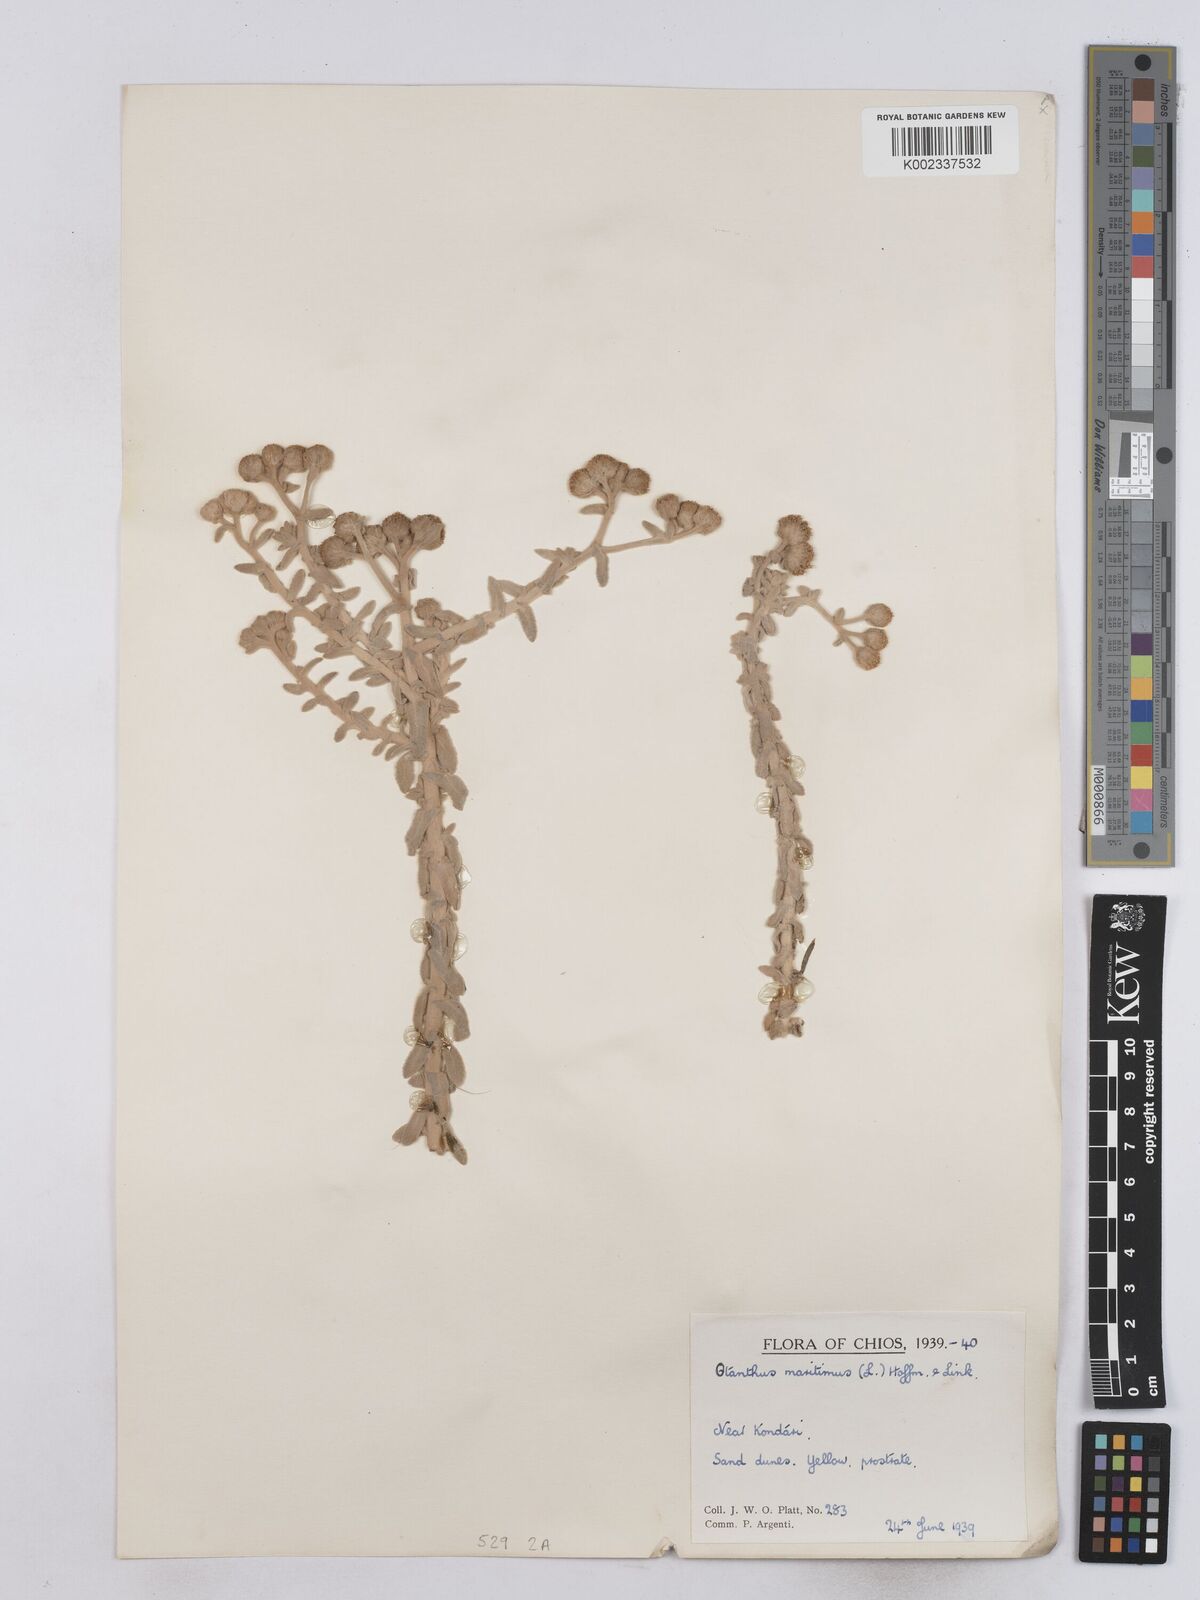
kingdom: Plantae
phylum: Tracheophyta
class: Magnoliopsida
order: Asterales
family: Asteraceae
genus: Achillea
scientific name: Achillea maritima
